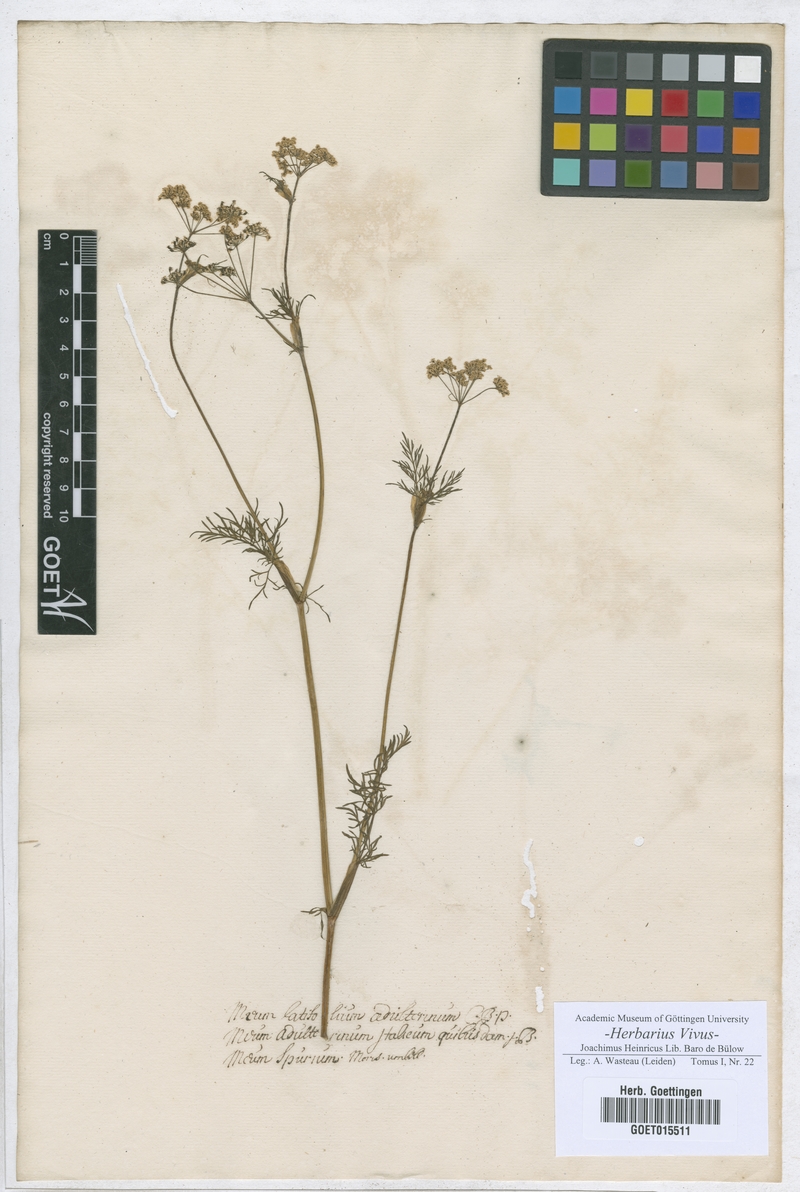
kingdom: Plantae
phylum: Tracheophyta
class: Magnoliopsida
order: Apiales
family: Apiaceae
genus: Anethum
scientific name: Anethum graveolens
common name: Dill
